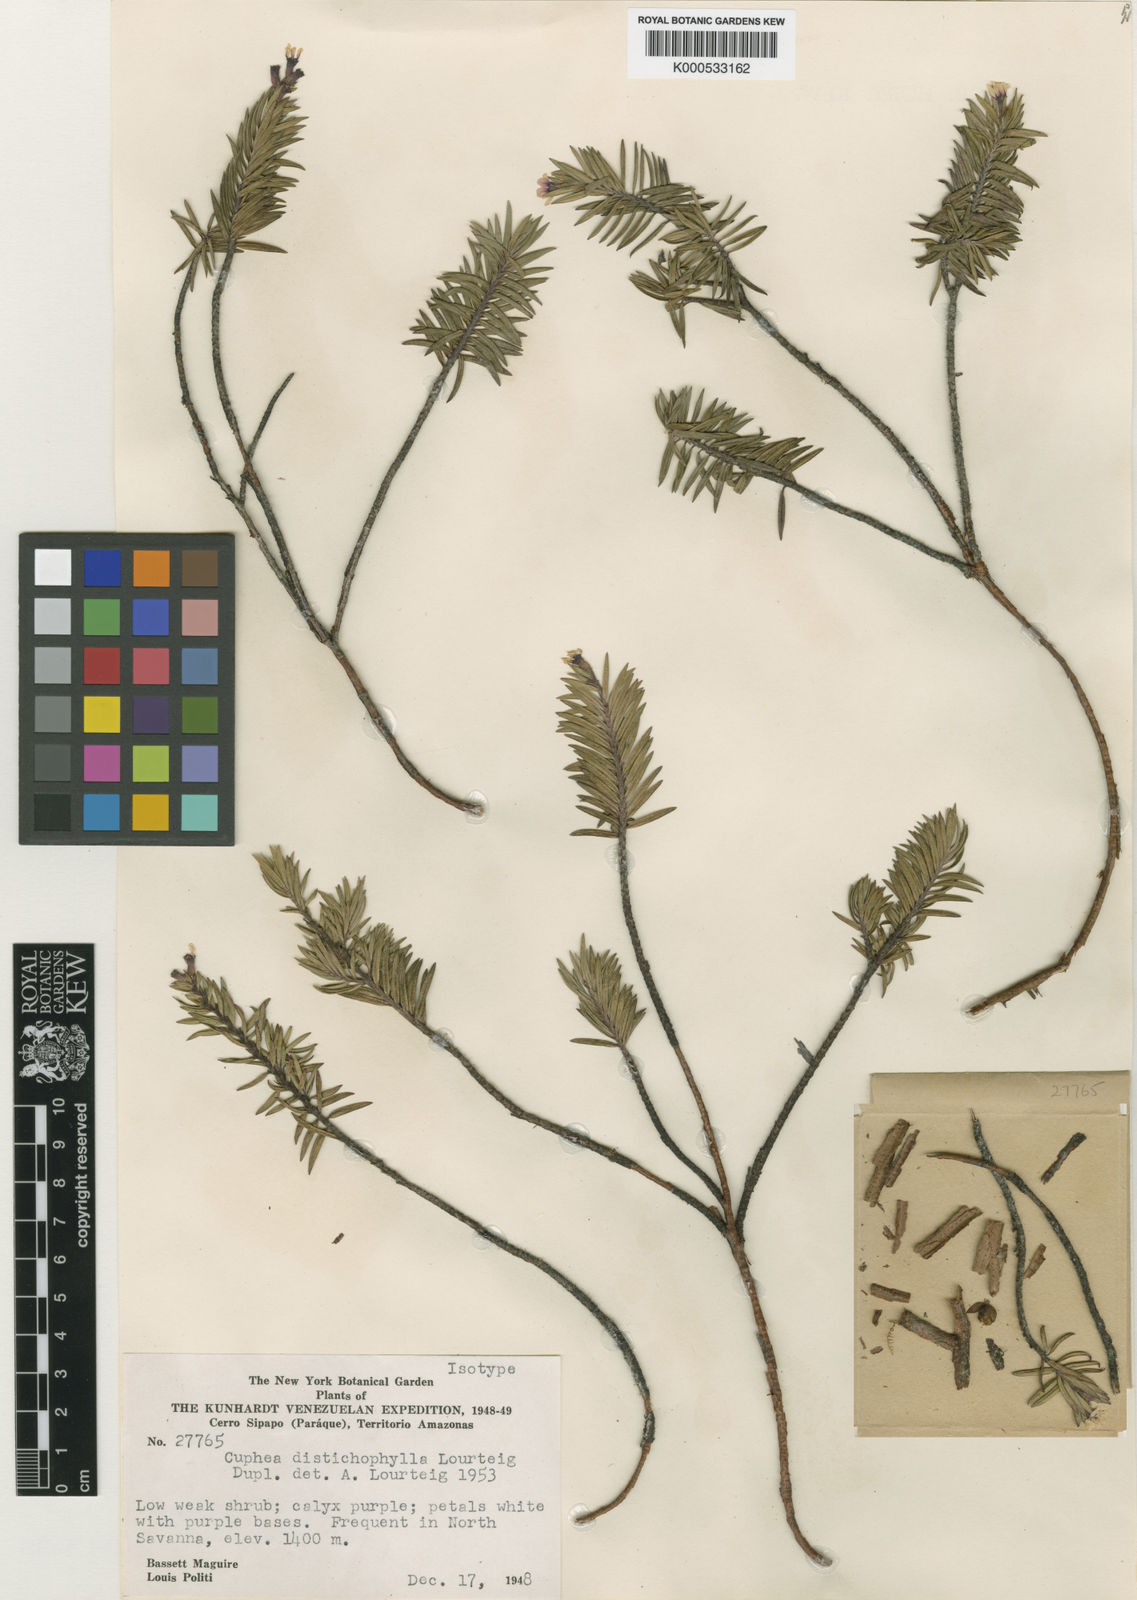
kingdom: Plantae
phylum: Tracheophyta
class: Magnoliopsida
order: Myrtales
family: Lythraceae
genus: Cuphea
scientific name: Cuphea distichophylla
